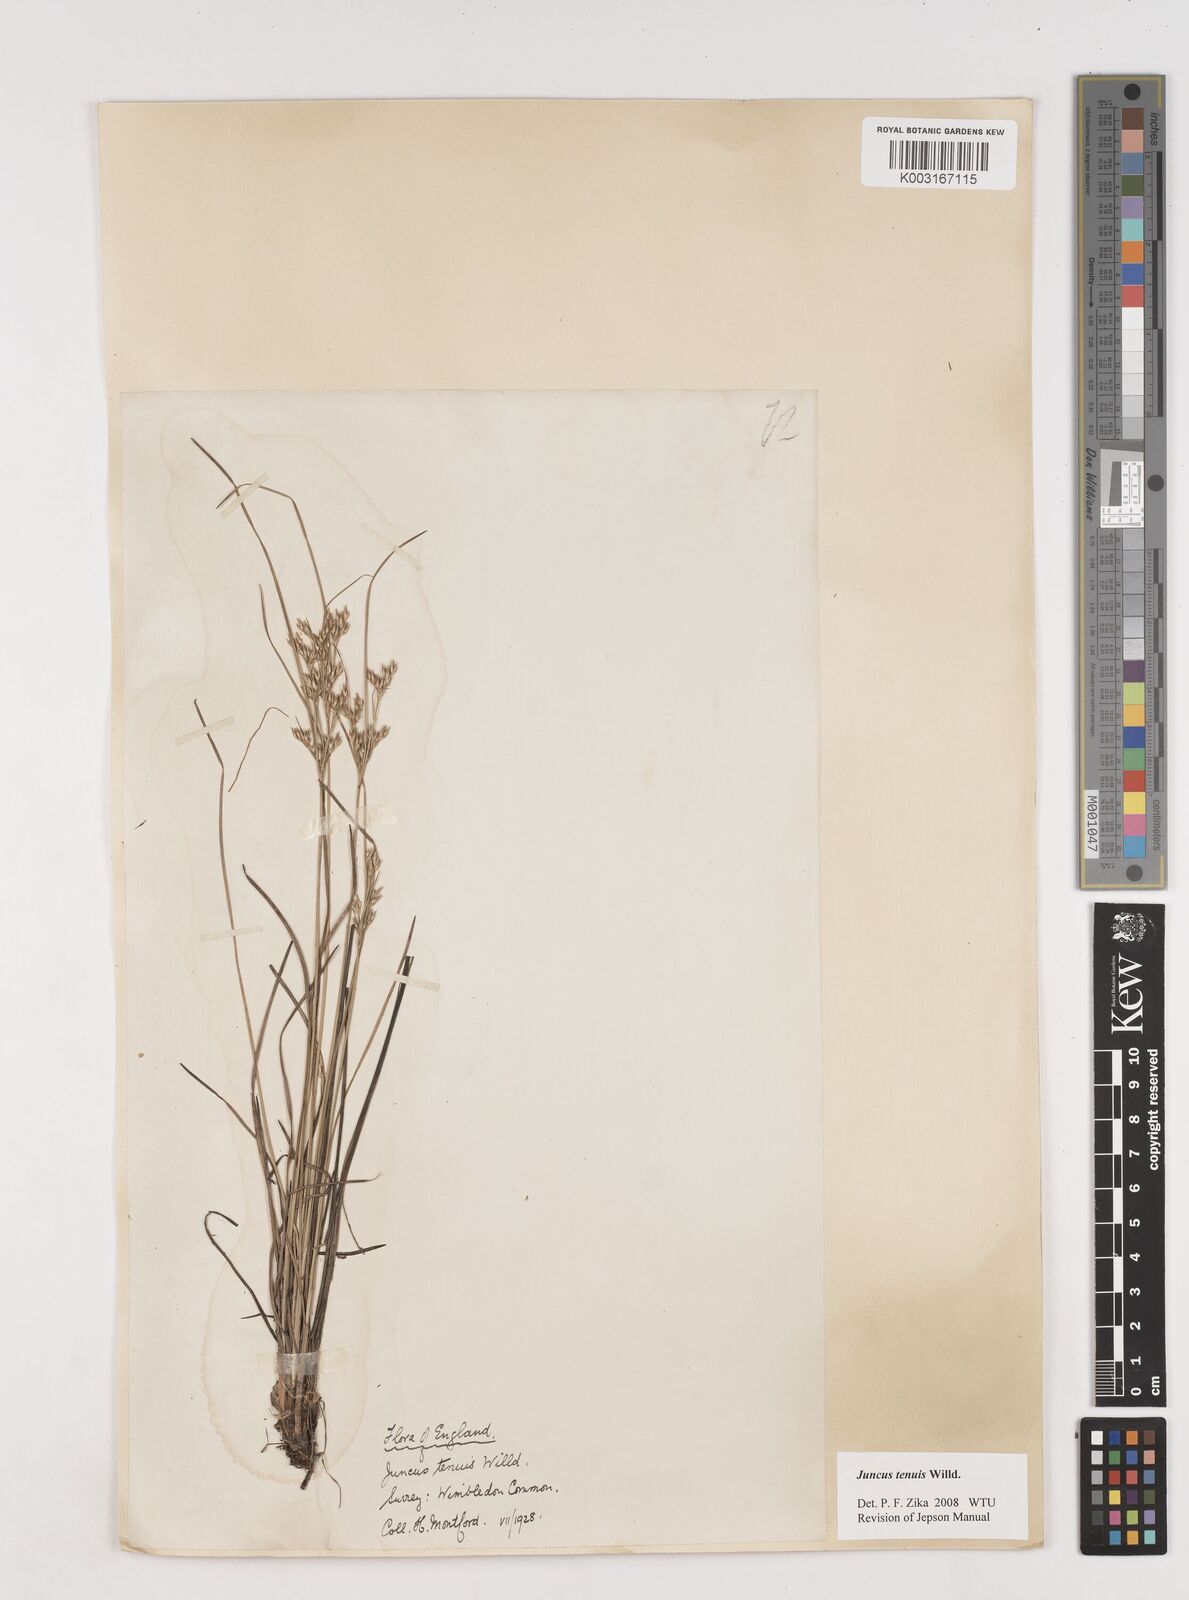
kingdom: Plantae
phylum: Tracheophyta
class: Liliopsida
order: Poales
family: Juncaceae
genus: Juncus
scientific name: Juncus occidentalis
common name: Western rush
